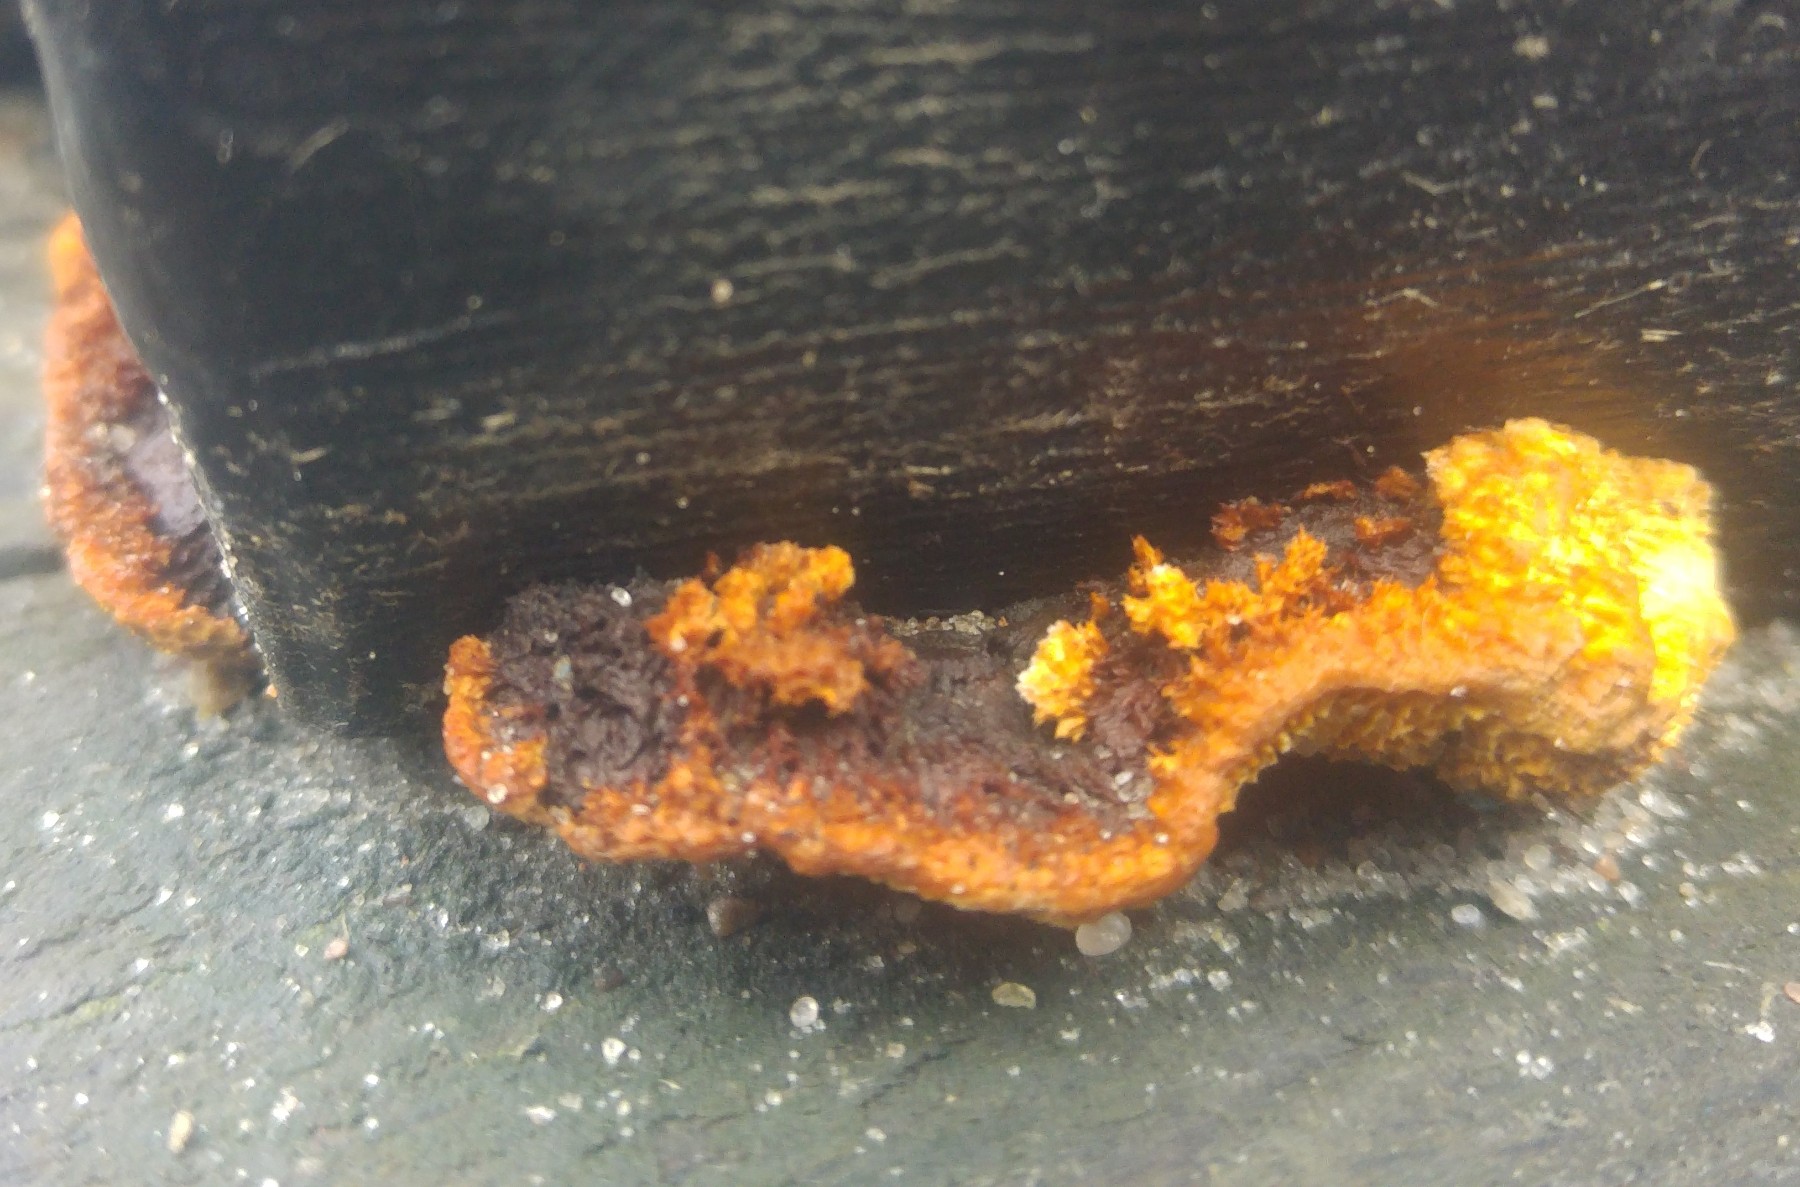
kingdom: Fungi
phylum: Basidiomycota
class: Agaricomycetes
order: Gloeophyllales
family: Gloeophyllaceae
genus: Gloeophyllum
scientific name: Gloeophyllum sepiarium
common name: fyrre-korkhat
